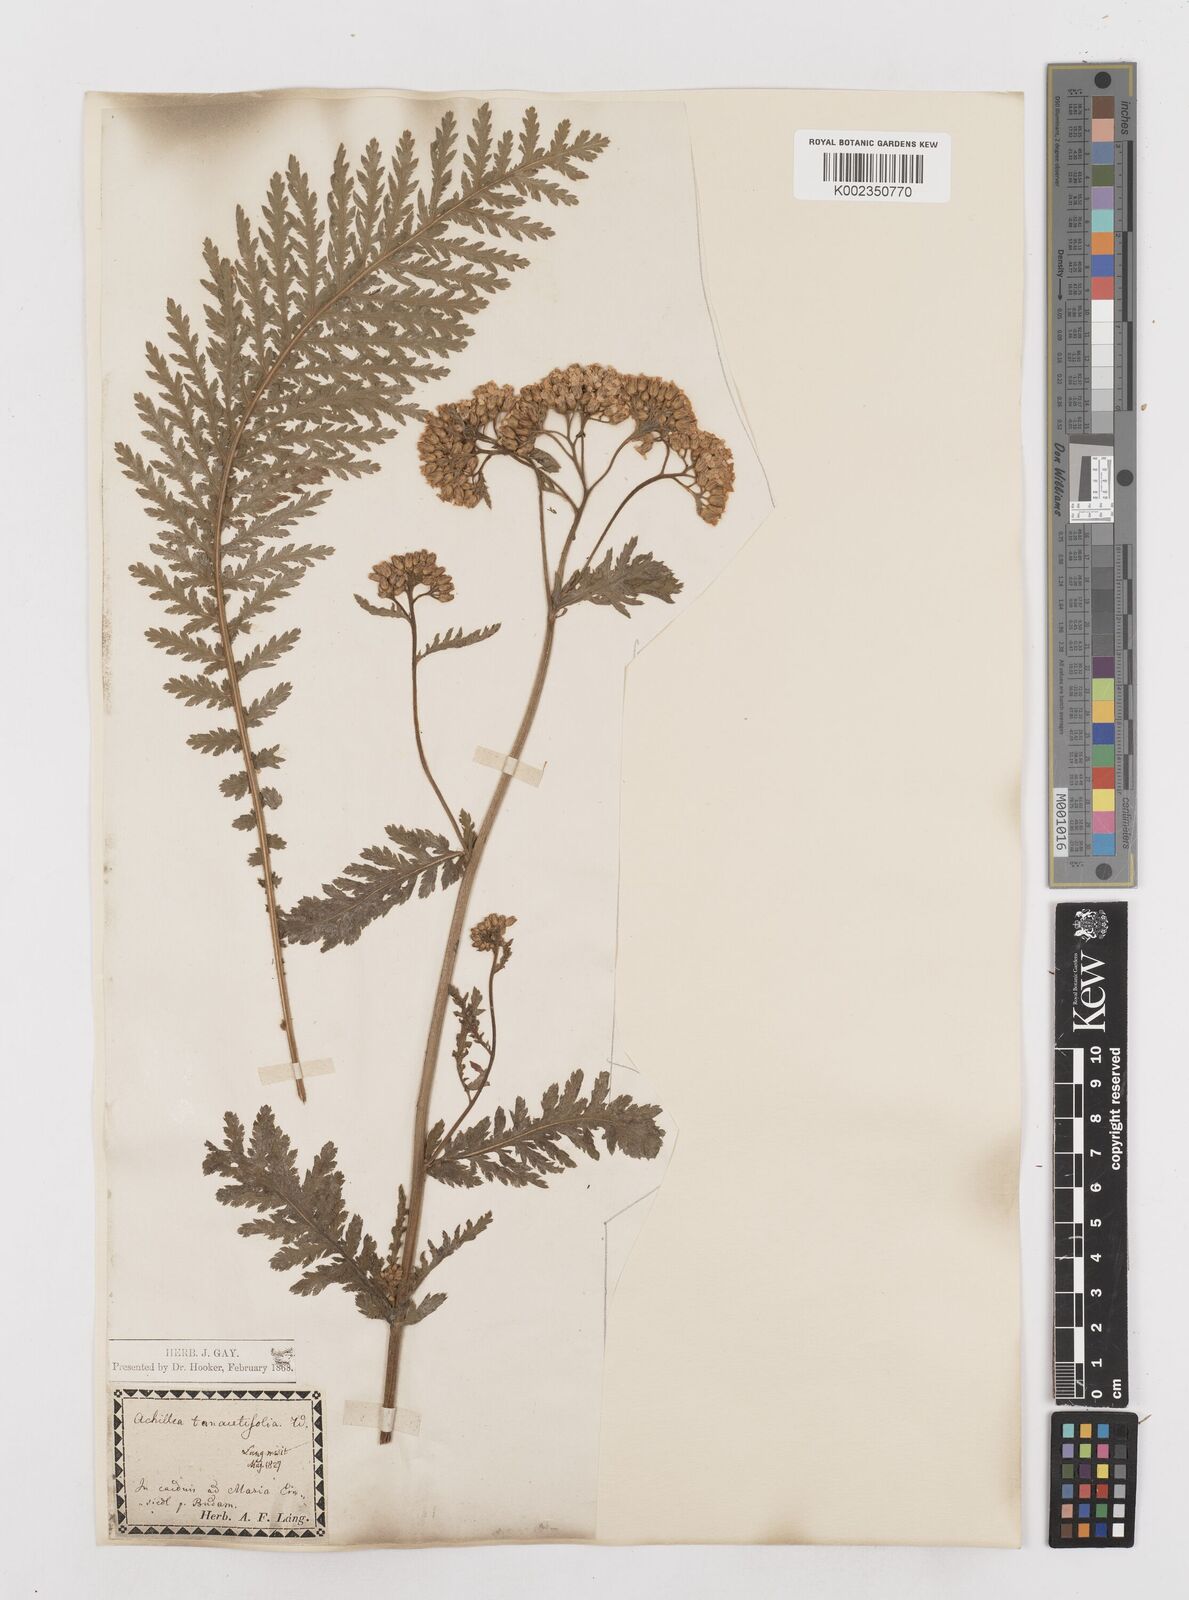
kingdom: Plantae
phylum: Tracheophyta
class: Magnoliopsida
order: Asterales
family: Asteraceae
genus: Achillea
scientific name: Achillea distans
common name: Tall yarrow
